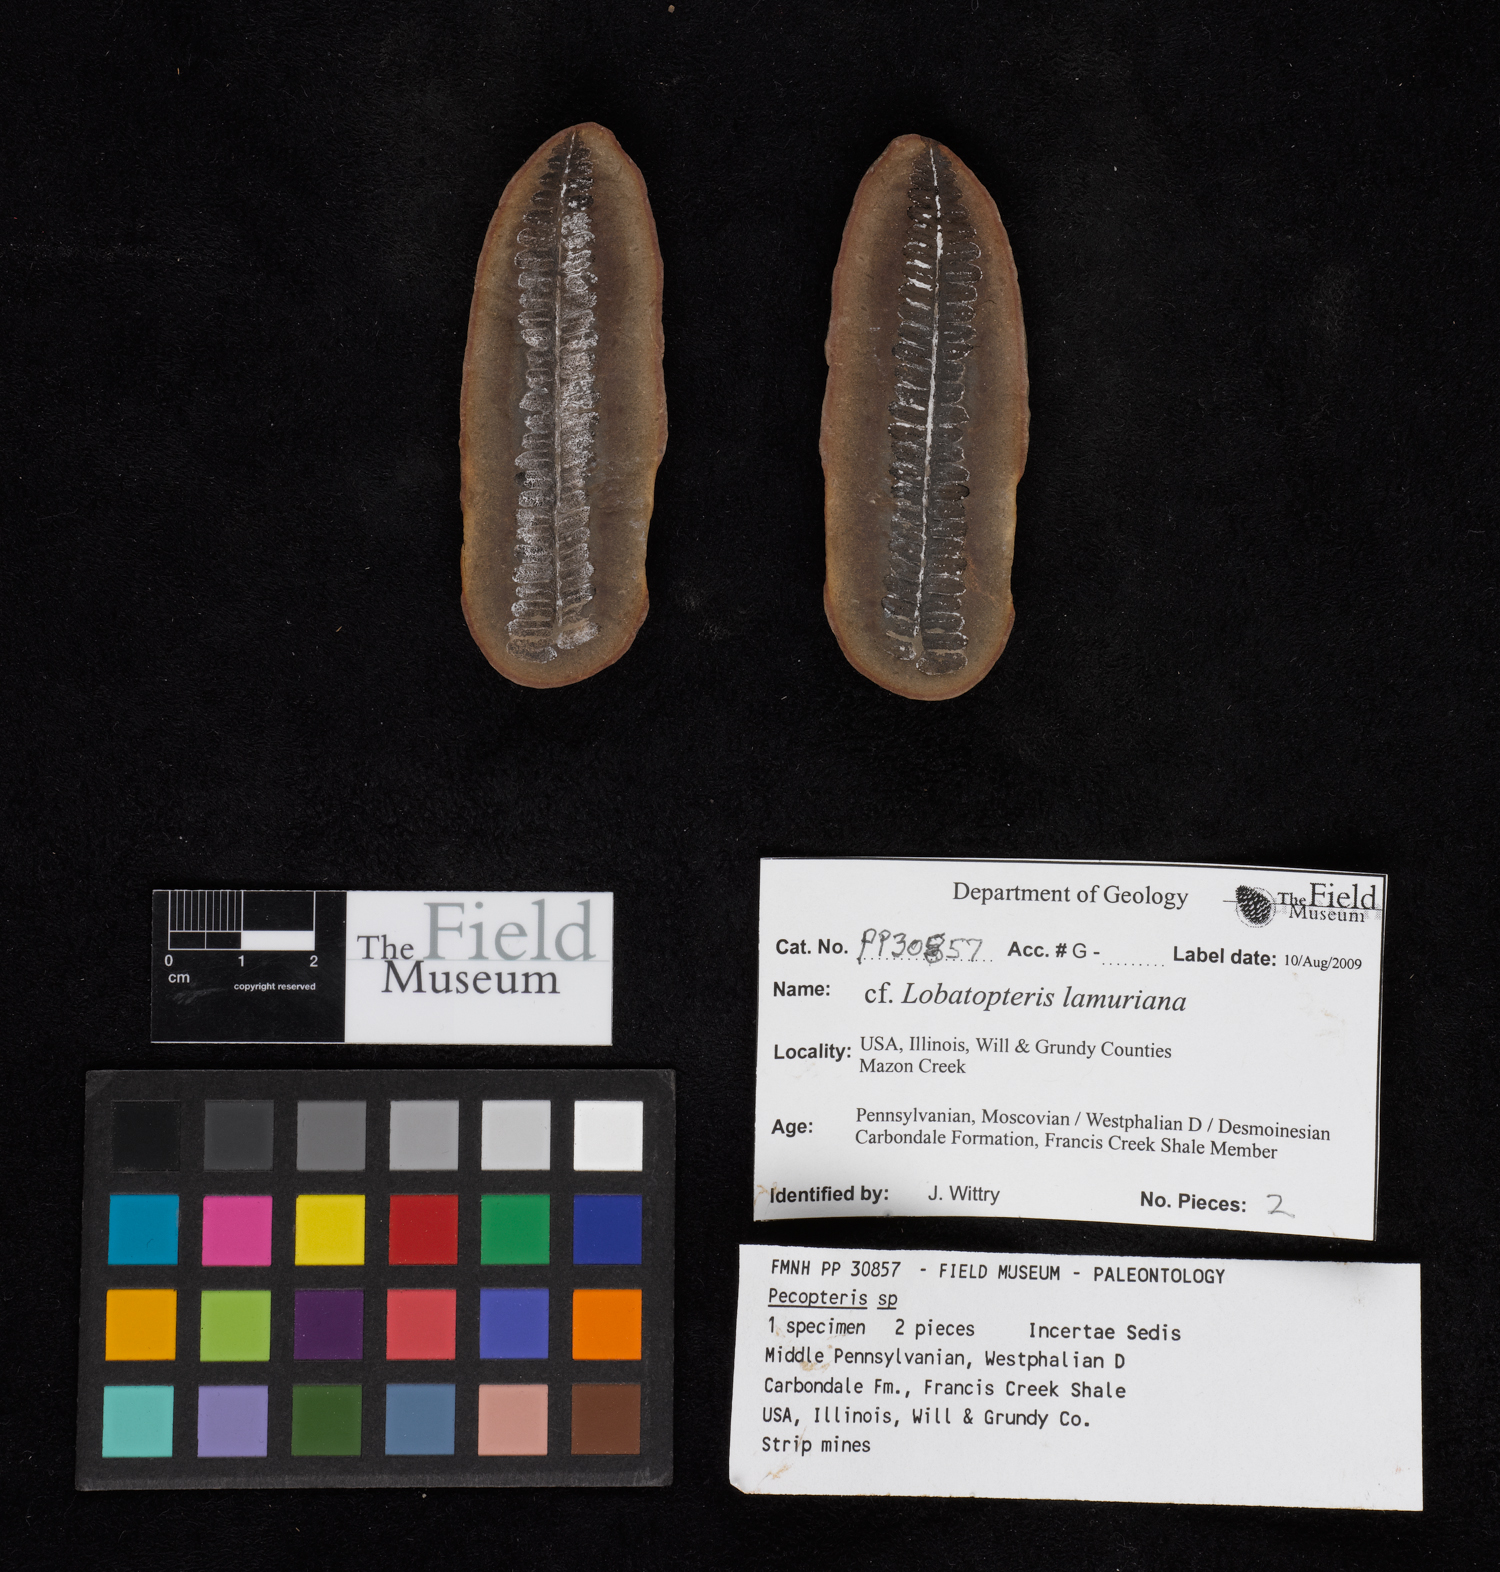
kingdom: Plantae
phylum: Tracheophyta
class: Polypodiopsida
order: Marattiales
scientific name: Marattiales
